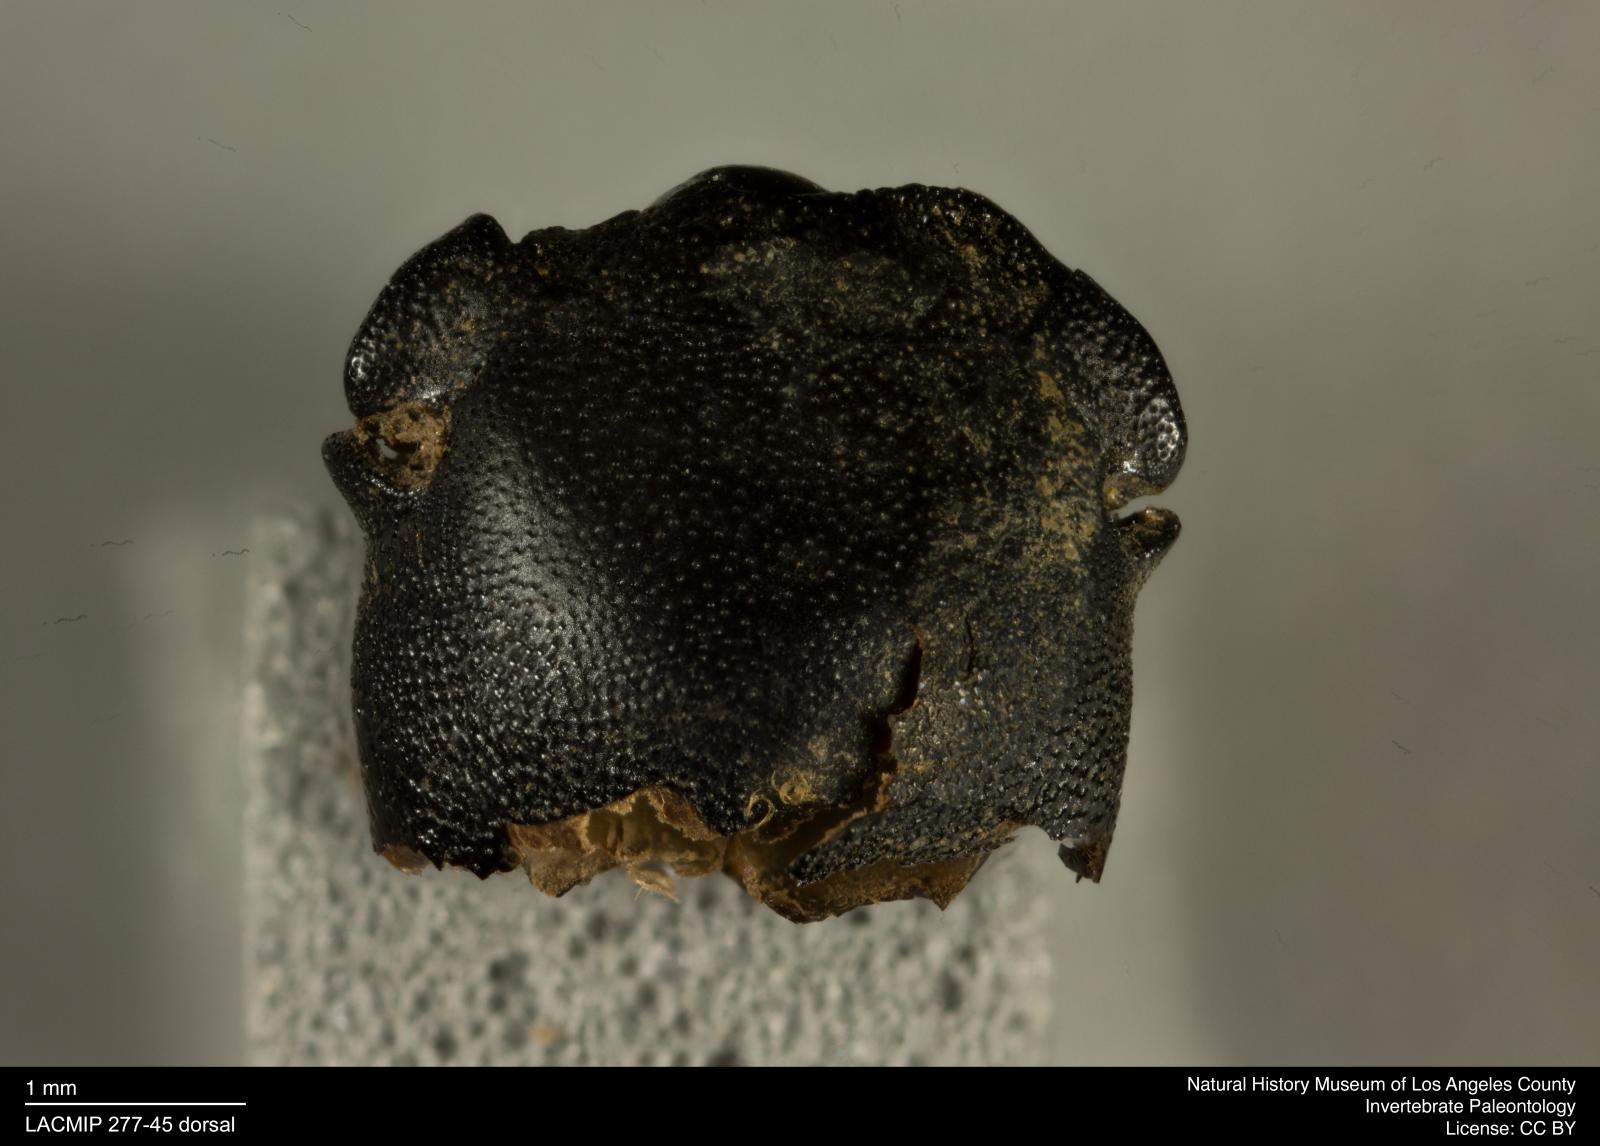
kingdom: Animalia
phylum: Arthropoda
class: Insecta
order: Coleoptera
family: Tenebrionidae
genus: Coniontis
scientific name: Coniontis abdominalis
